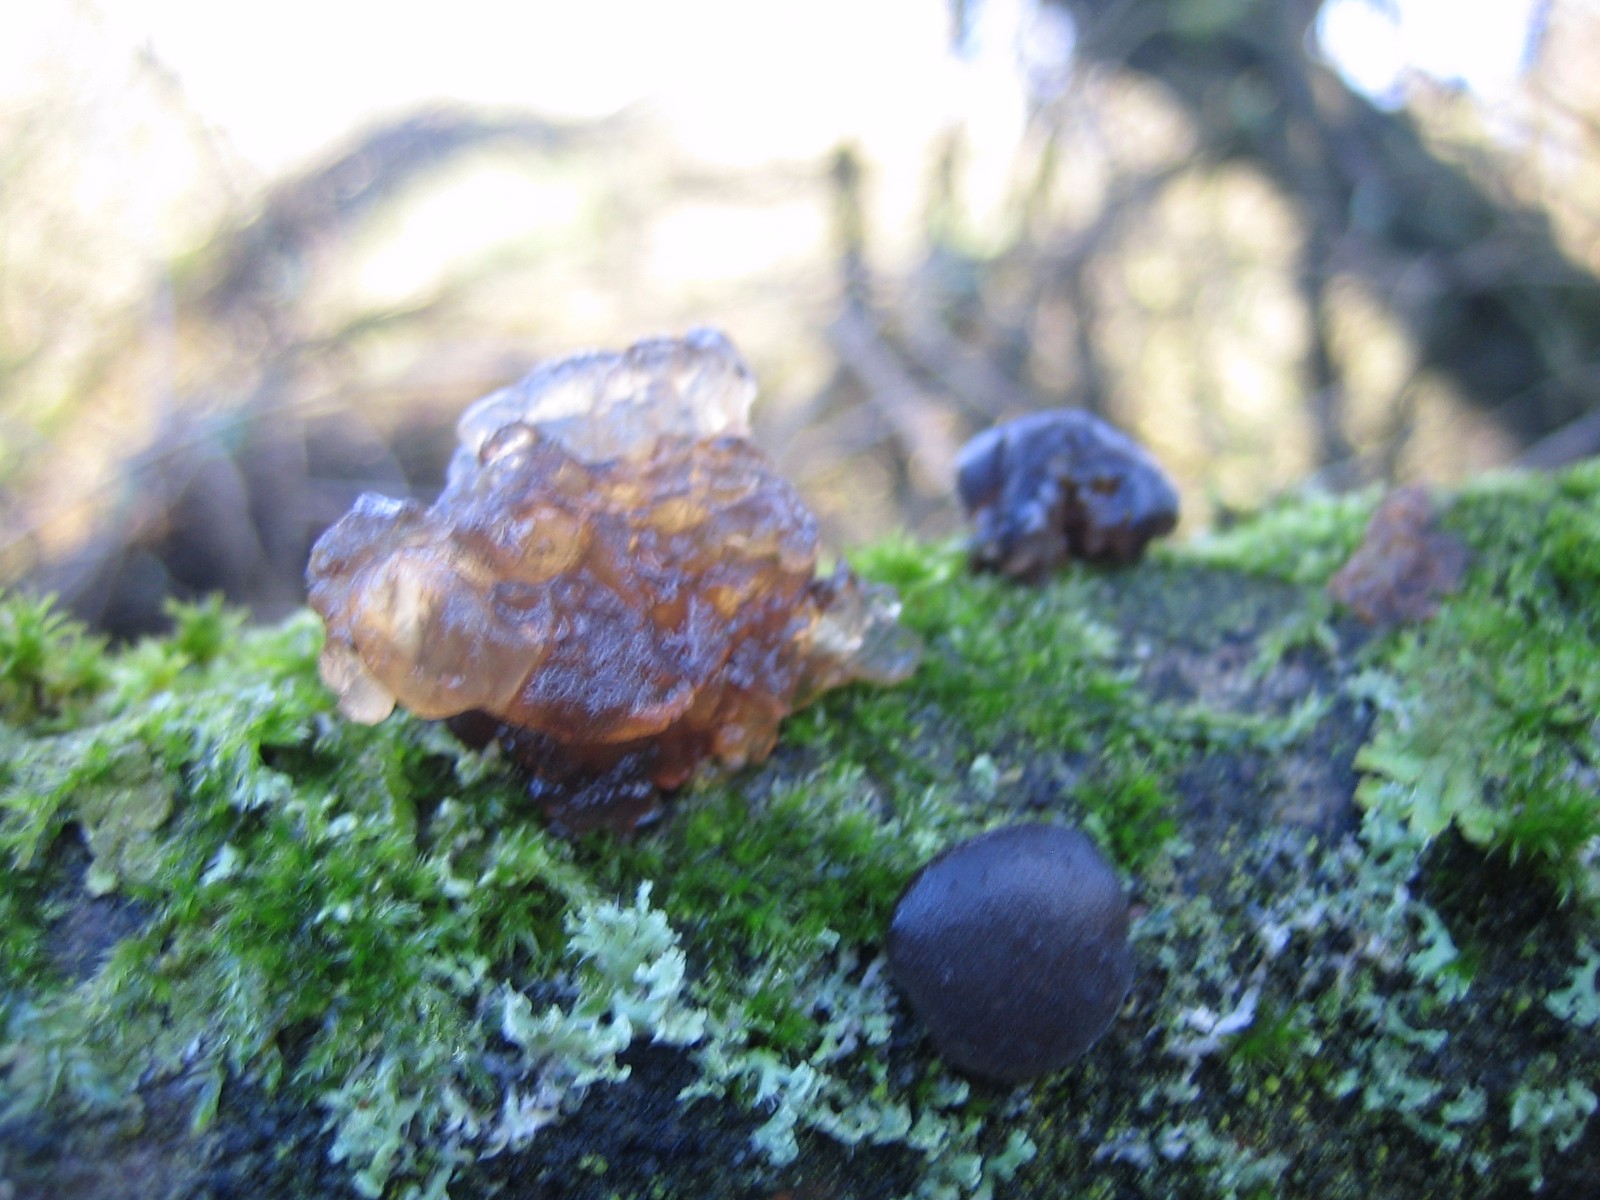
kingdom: Fungi
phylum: Basidiomycota
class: Agaricomycetes
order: Auriculariales
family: Auriculariaceae
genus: Exidia
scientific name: Exidia glandulosa
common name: ege-bævretop
